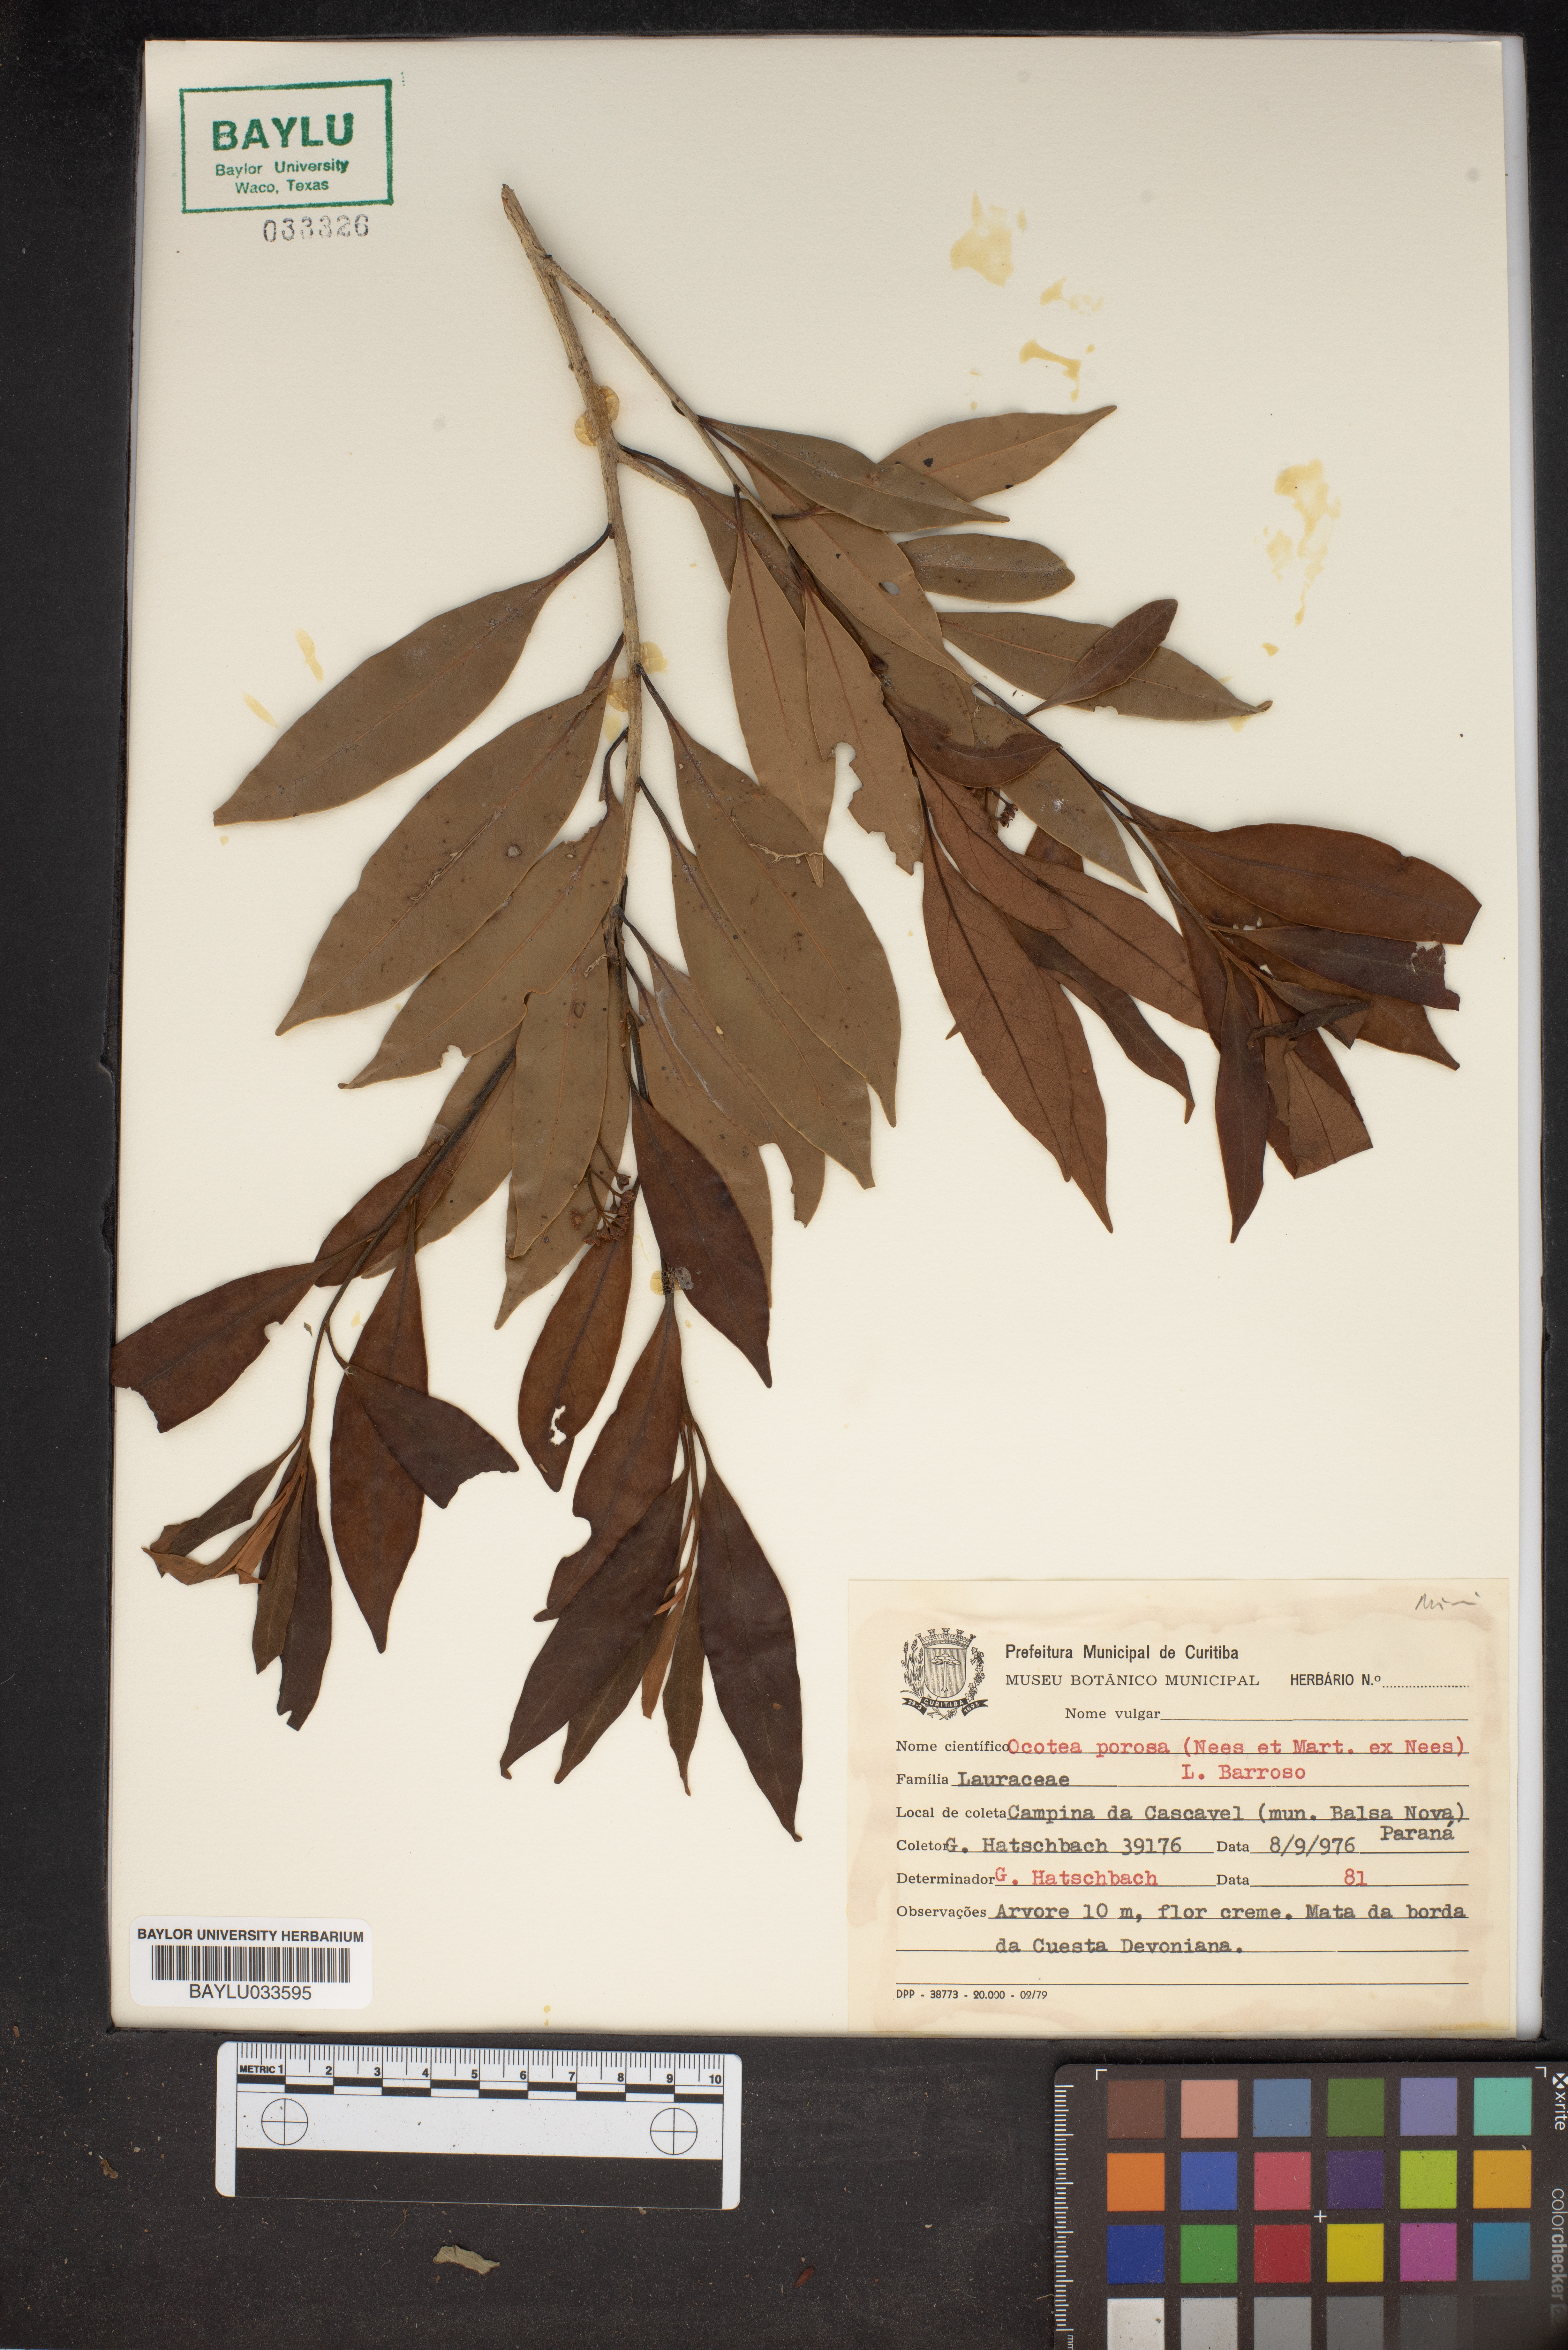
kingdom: Plantae
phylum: Tracheophyta
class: Magnoliopsida
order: Laurales
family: Lauraceae
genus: Ocotea
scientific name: Ocotea porosa
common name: Brazilian-walnut
